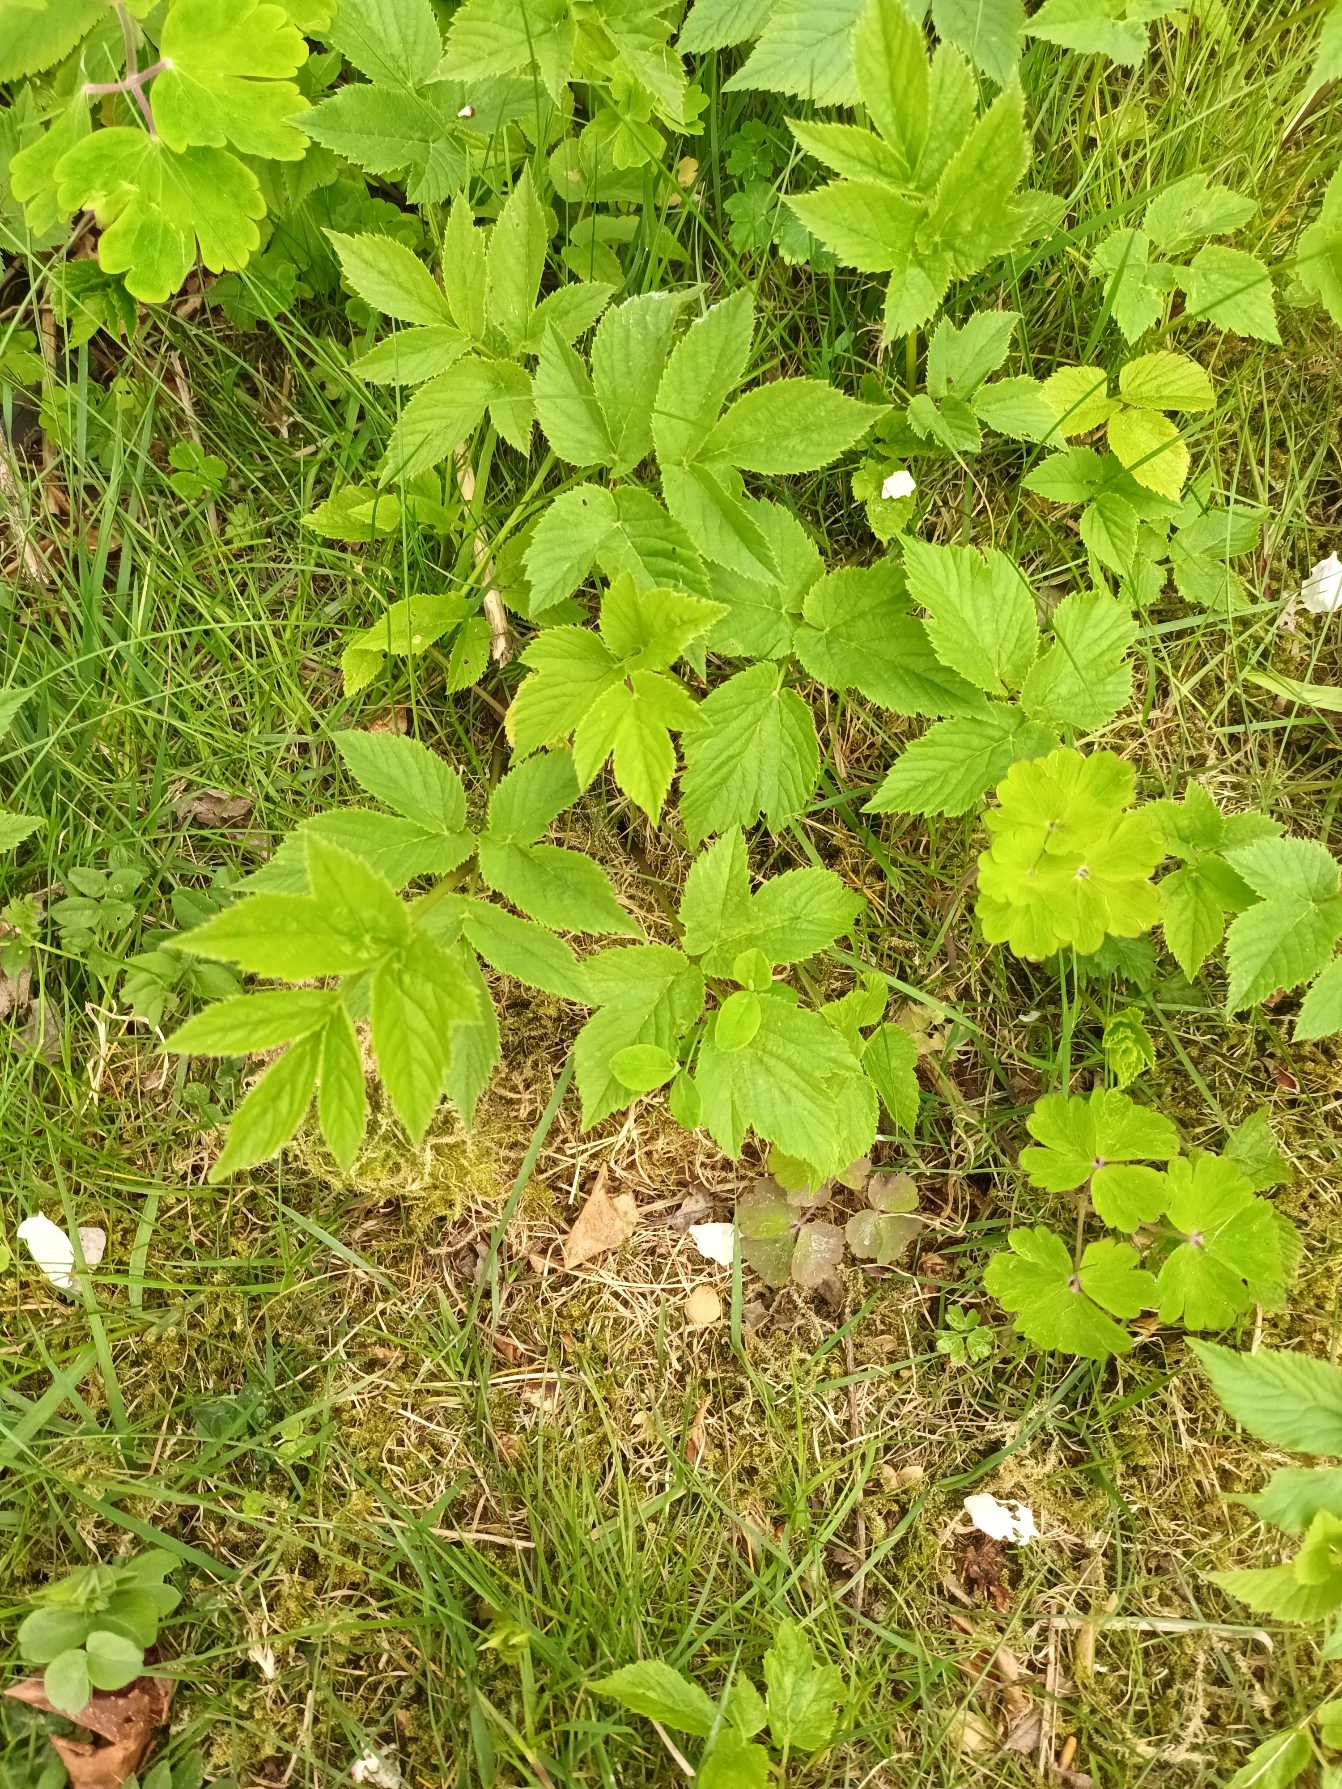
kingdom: Plantae
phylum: Tracheophyta
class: Magnoliopsida
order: Apiales
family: Apiaceae
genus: Aegopodium
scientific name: Aegopodium podagraria
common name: Skvalderkål
